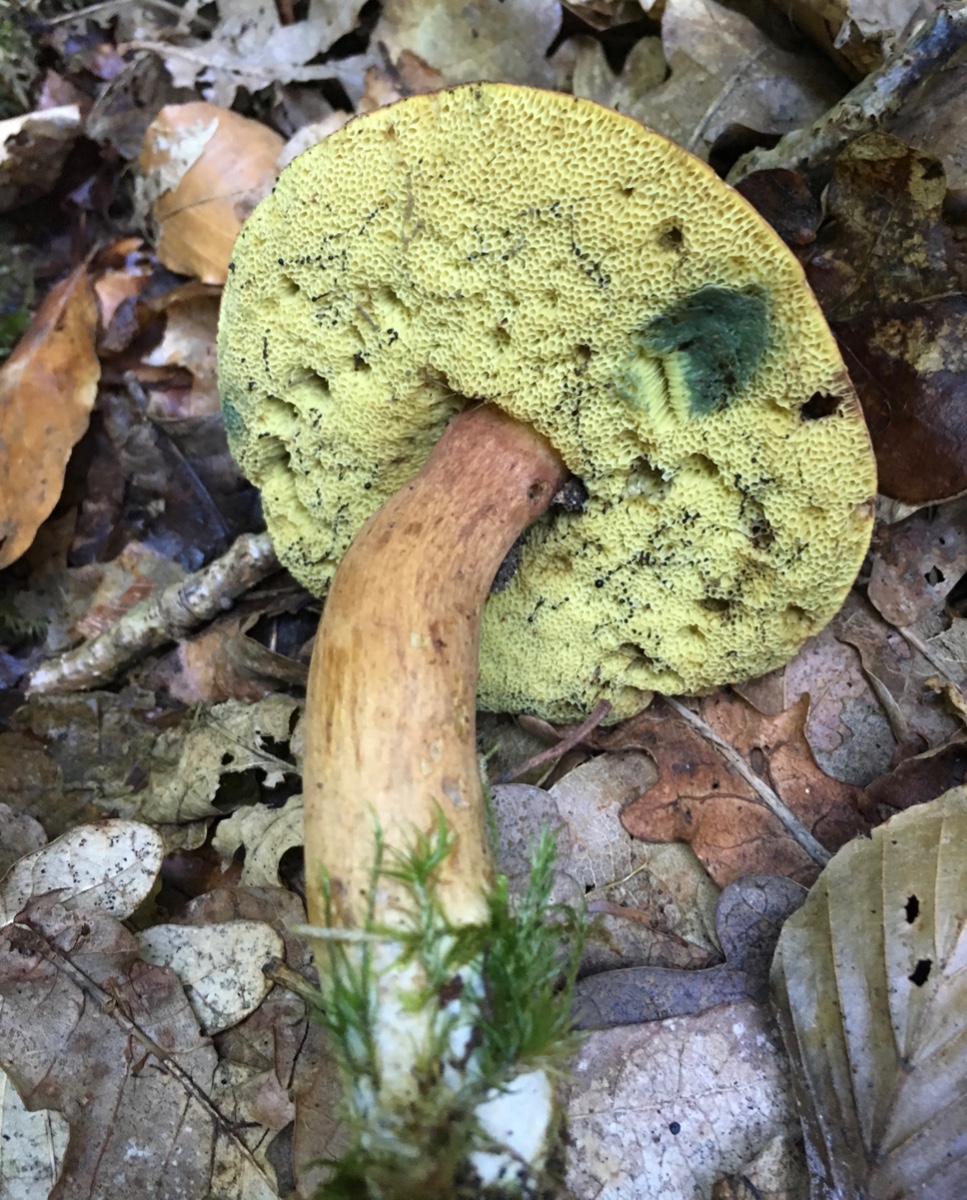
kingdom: Fungi
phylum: Basidiomycota
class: Agaricomycetes
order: Boletales
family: Boletaceae
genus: Imleria
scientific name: Imleria badia
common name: brunstokket rørhat
